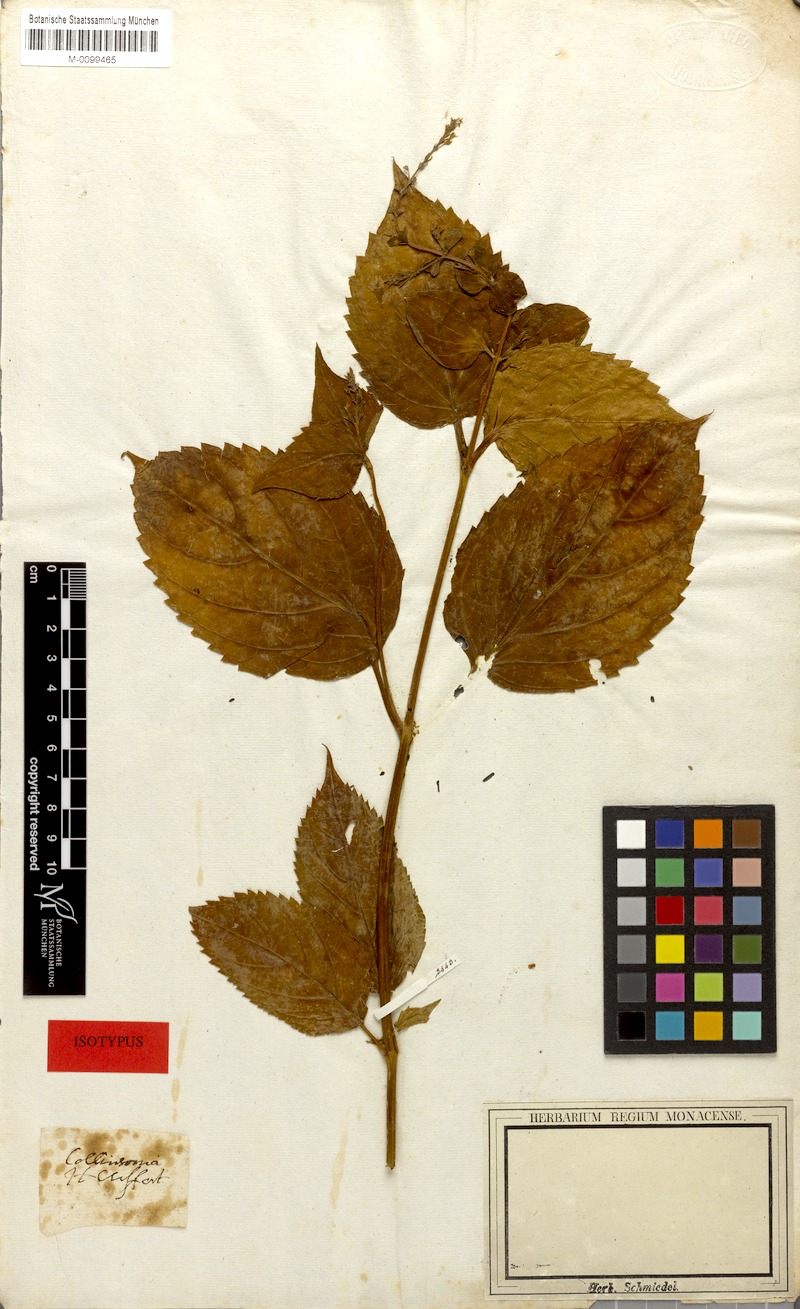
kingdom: Plantae
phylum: Tracheophyta
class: Magnoliopsida
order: Lamiales
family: Lamiaceae
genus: Collinsonia
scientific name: Collinsonia canadensis
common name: Northern horsebalm
